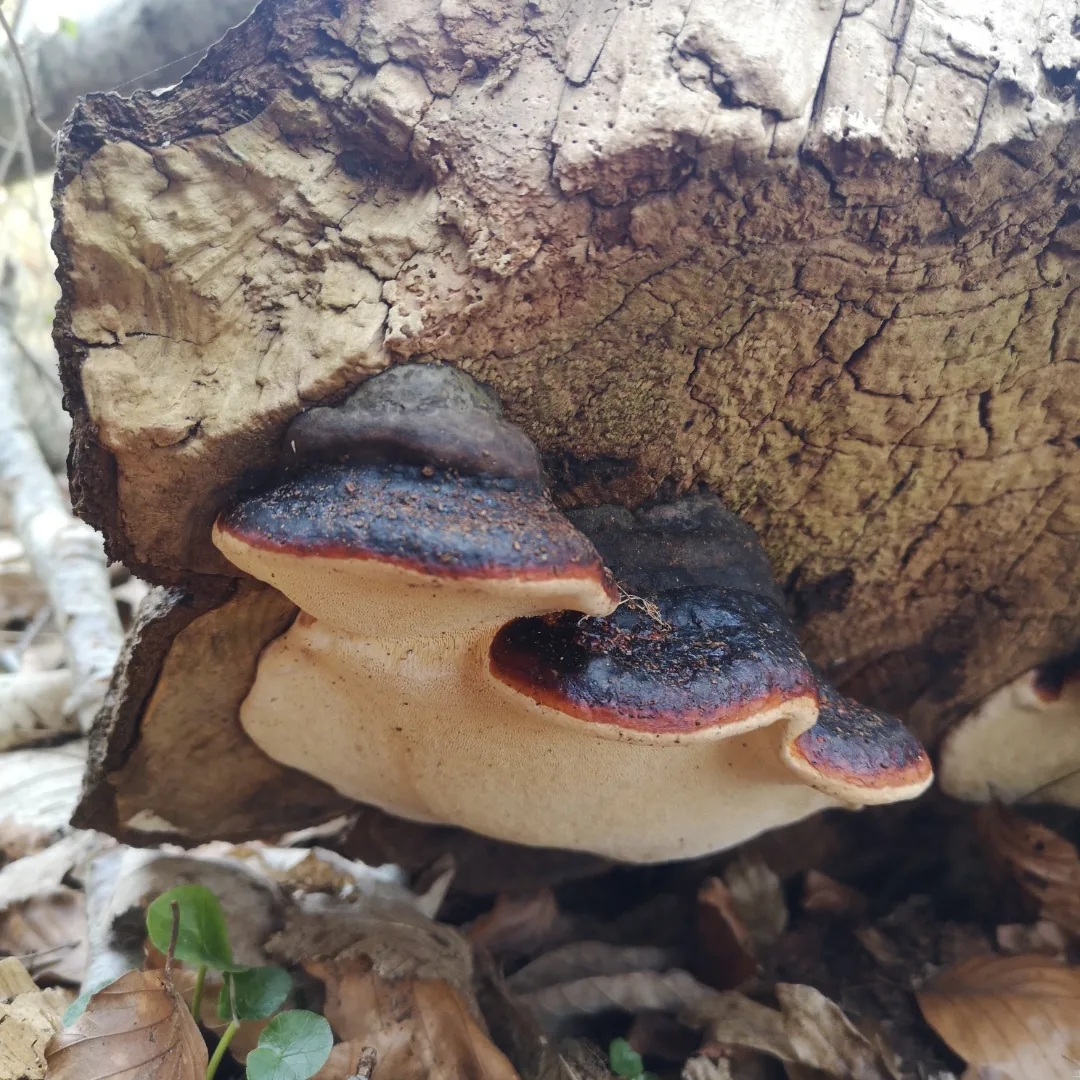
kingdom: Fungi
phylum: Basidiomycota
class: Agaricomycetes
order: Polyporales
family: Fomitopsidaceae
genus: Fomitopsis
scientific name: Fomitopsis pinicola
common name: randbæltet hovporesvamp
